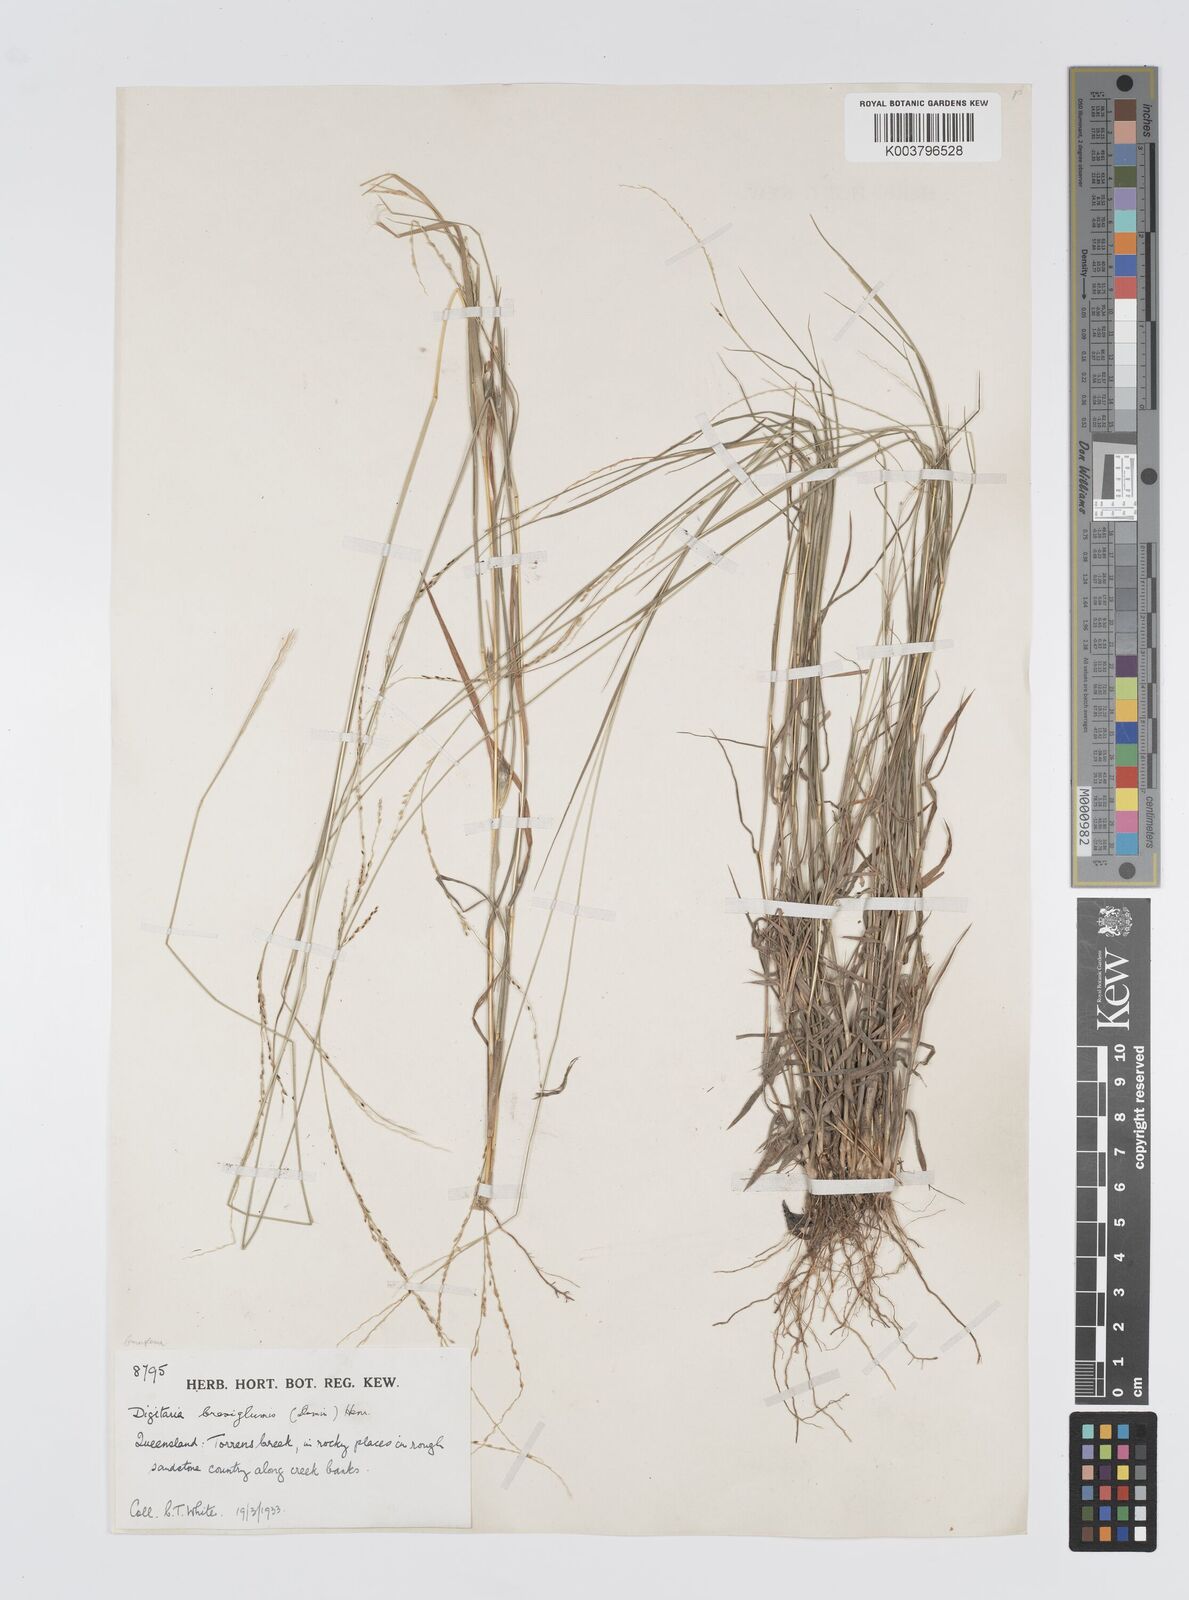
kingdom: Plantae
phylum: Tracheophyta
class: Liliopsida
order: Poales
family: Poaceae
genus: Digitaria
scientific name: Digitaria breviglumis
